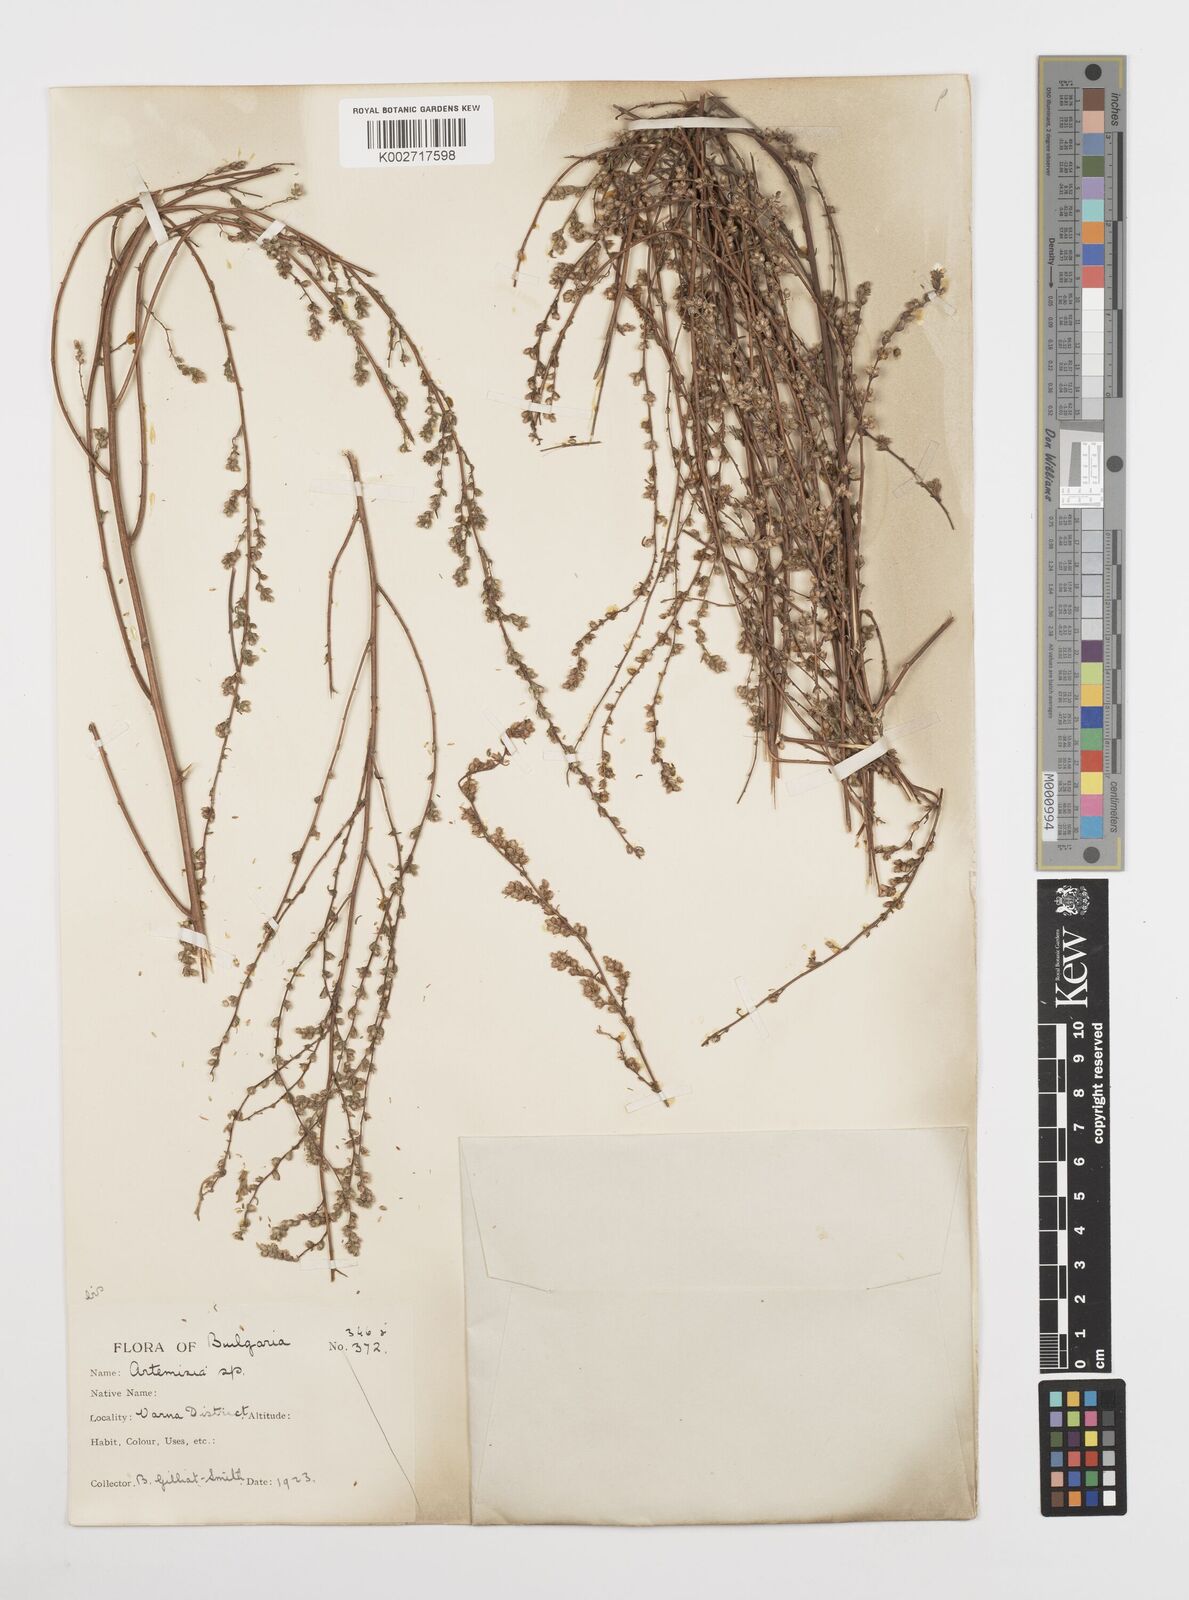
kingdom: Plantae
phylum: Tracheophyta
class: Magnoliopsida
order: Asterales
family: Asteraceae
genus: Artemisia
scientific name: Artemisia campestris
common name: Field wormwood
